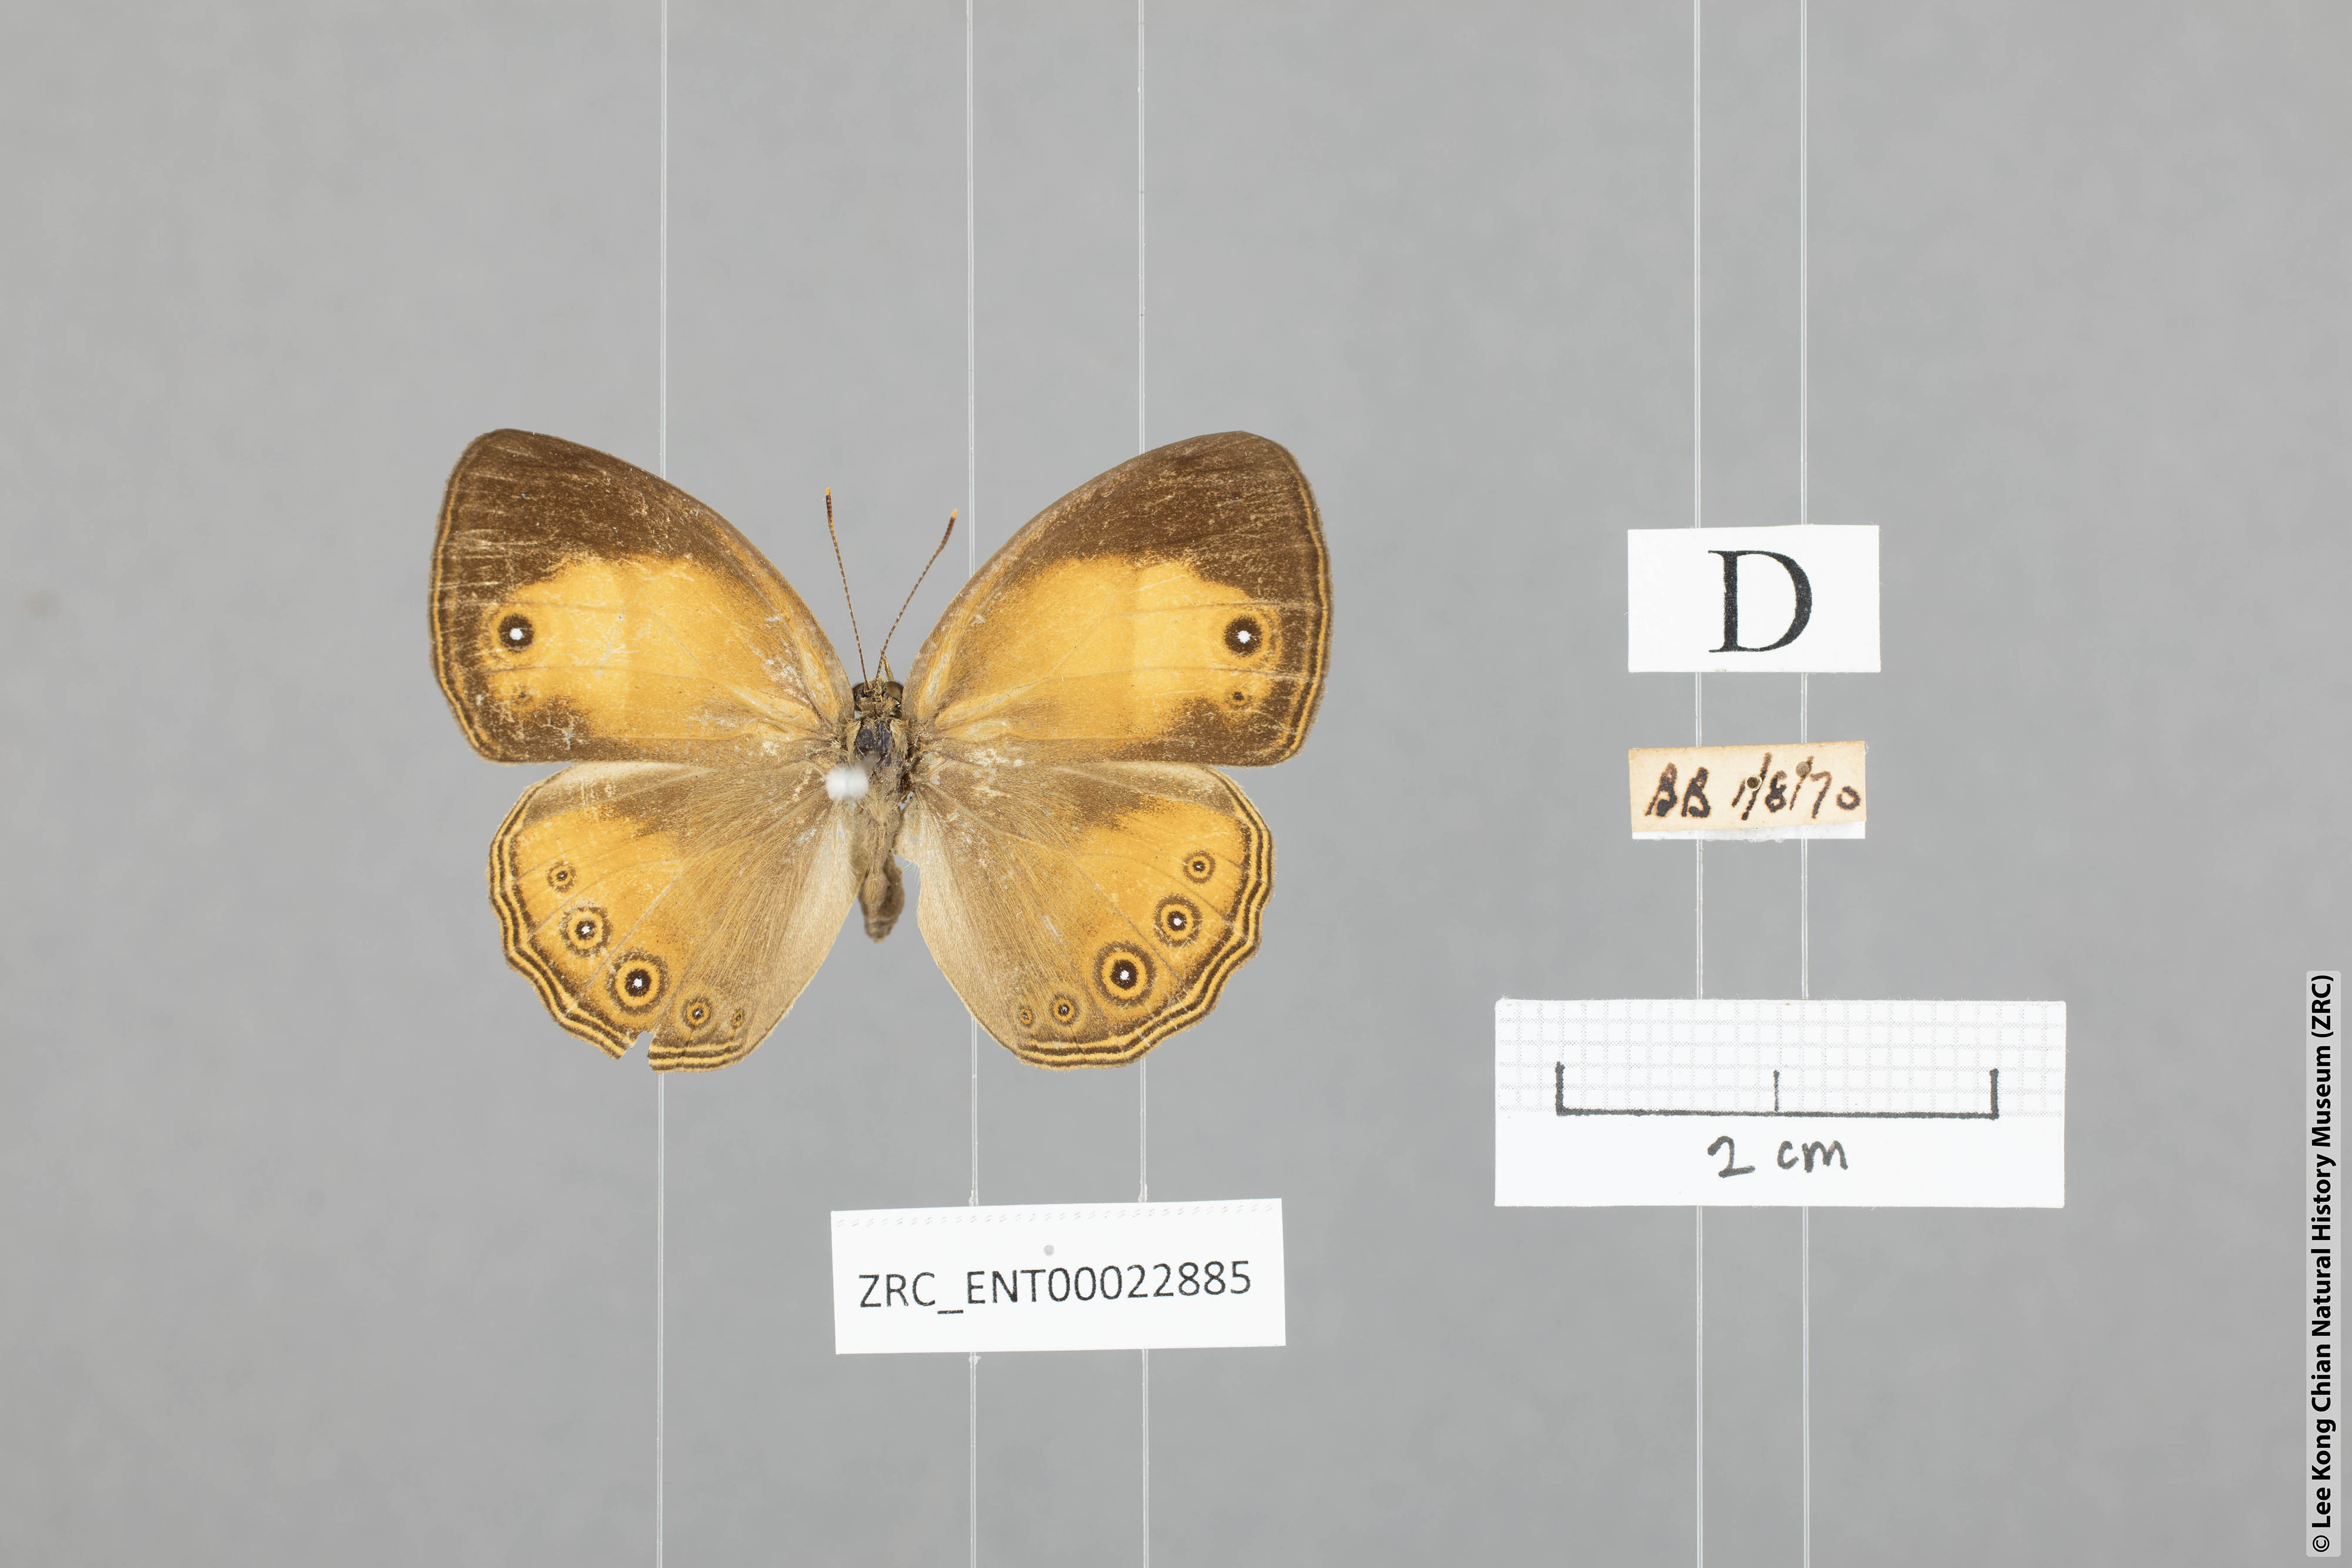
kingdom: Animalia
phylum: Arthropoda
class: Insecta
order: Lepidoptera
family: Nymphalidae
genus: Mycalesis
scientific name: Mycalesis anapita
